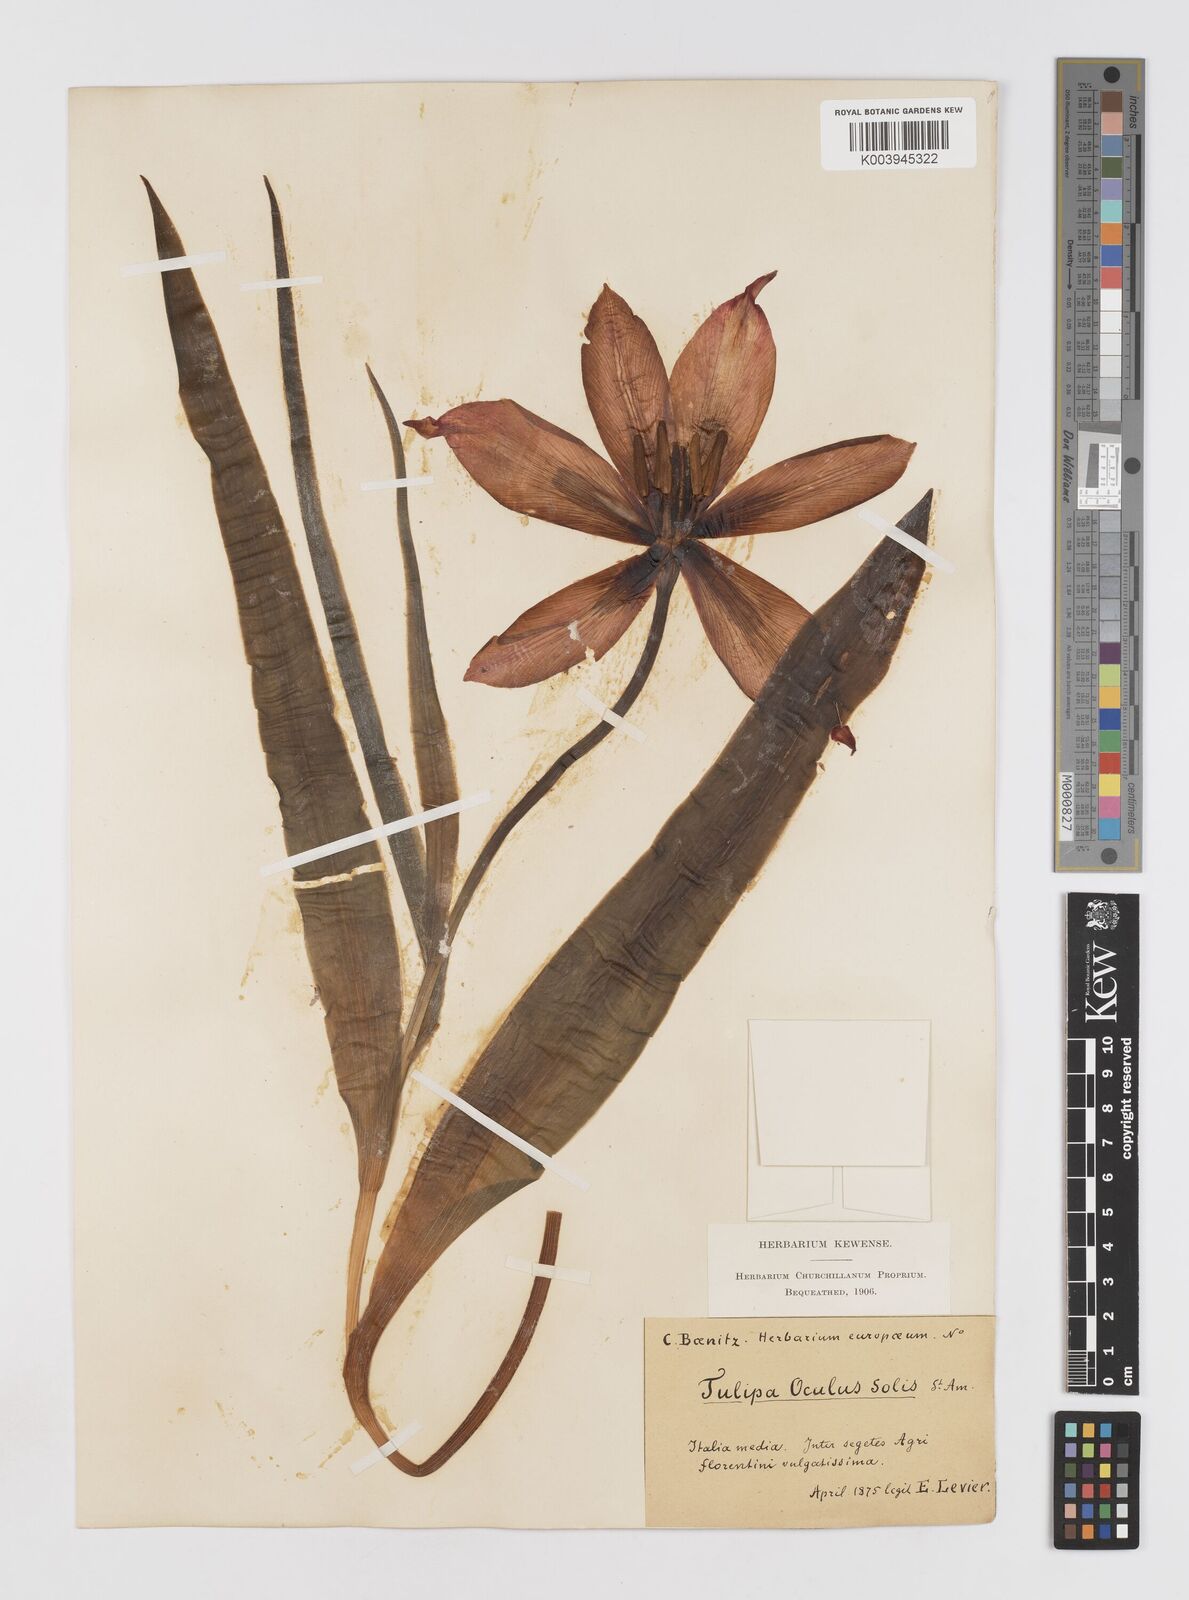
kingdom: Plantae
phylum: Tracheophyta
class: Liliopsida
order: Liliales
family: Liliaceae
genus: Tulipa
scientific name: Tulipa agenensis
